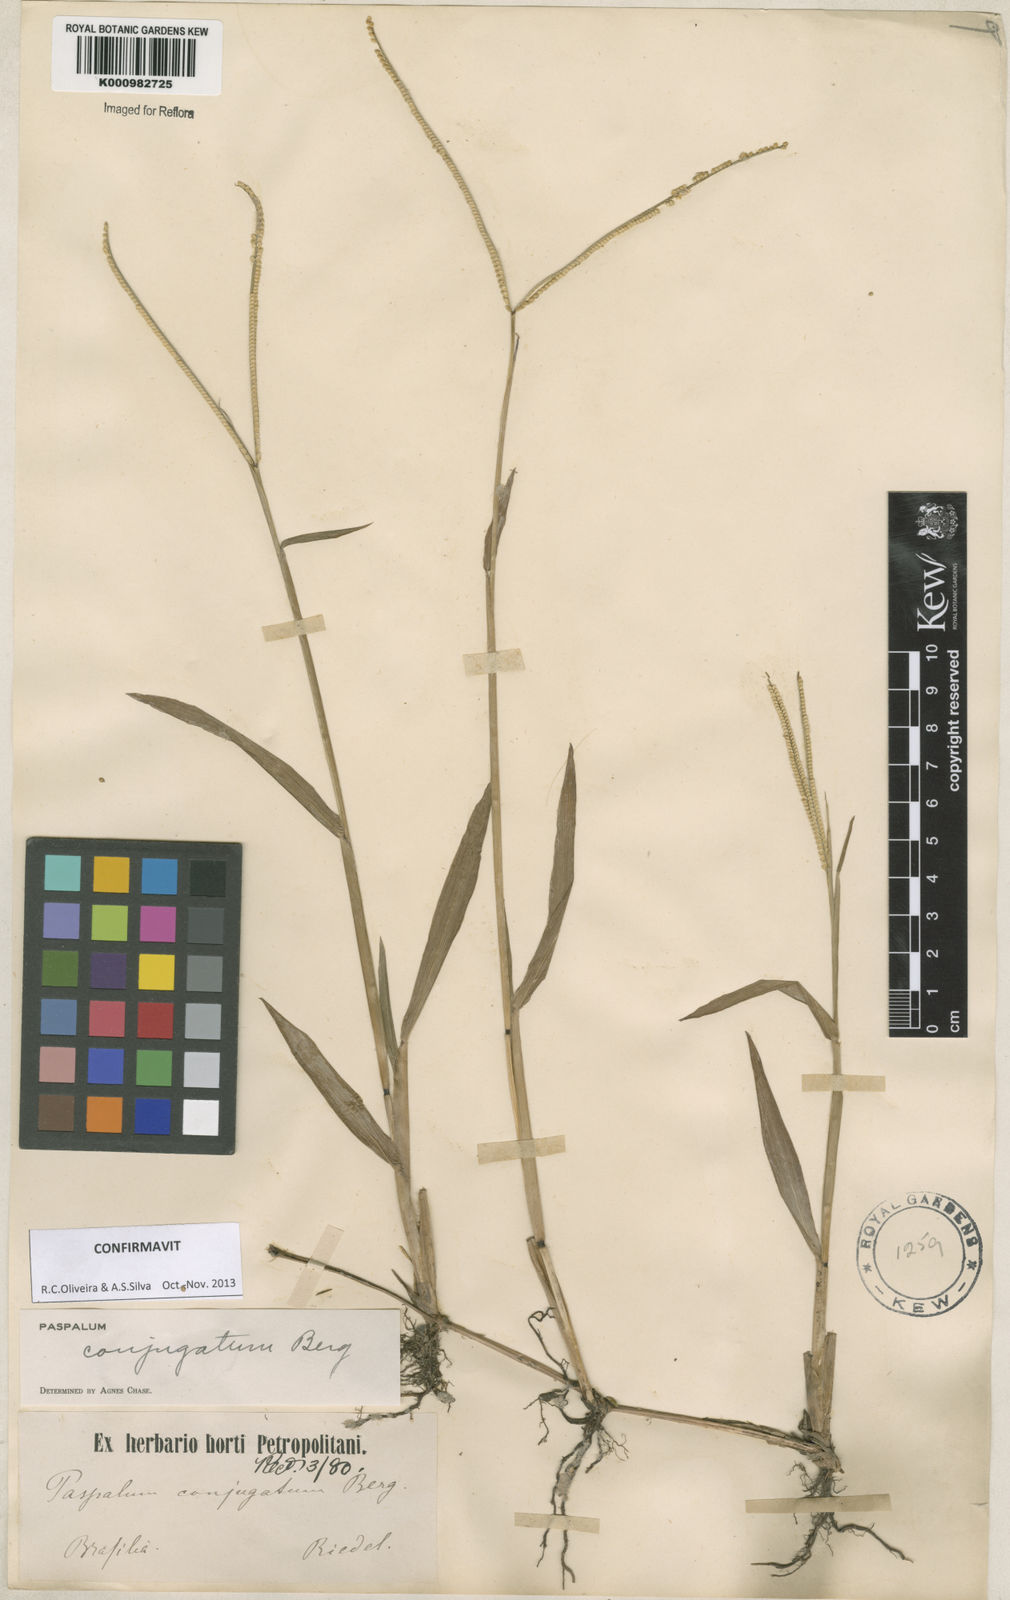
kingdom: Plantae
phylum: Tracheophyta
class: Liliopsida
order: Poales
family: Poaceae
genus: Paspalum
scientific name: Paspalum conjugatum
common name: Hilograss
